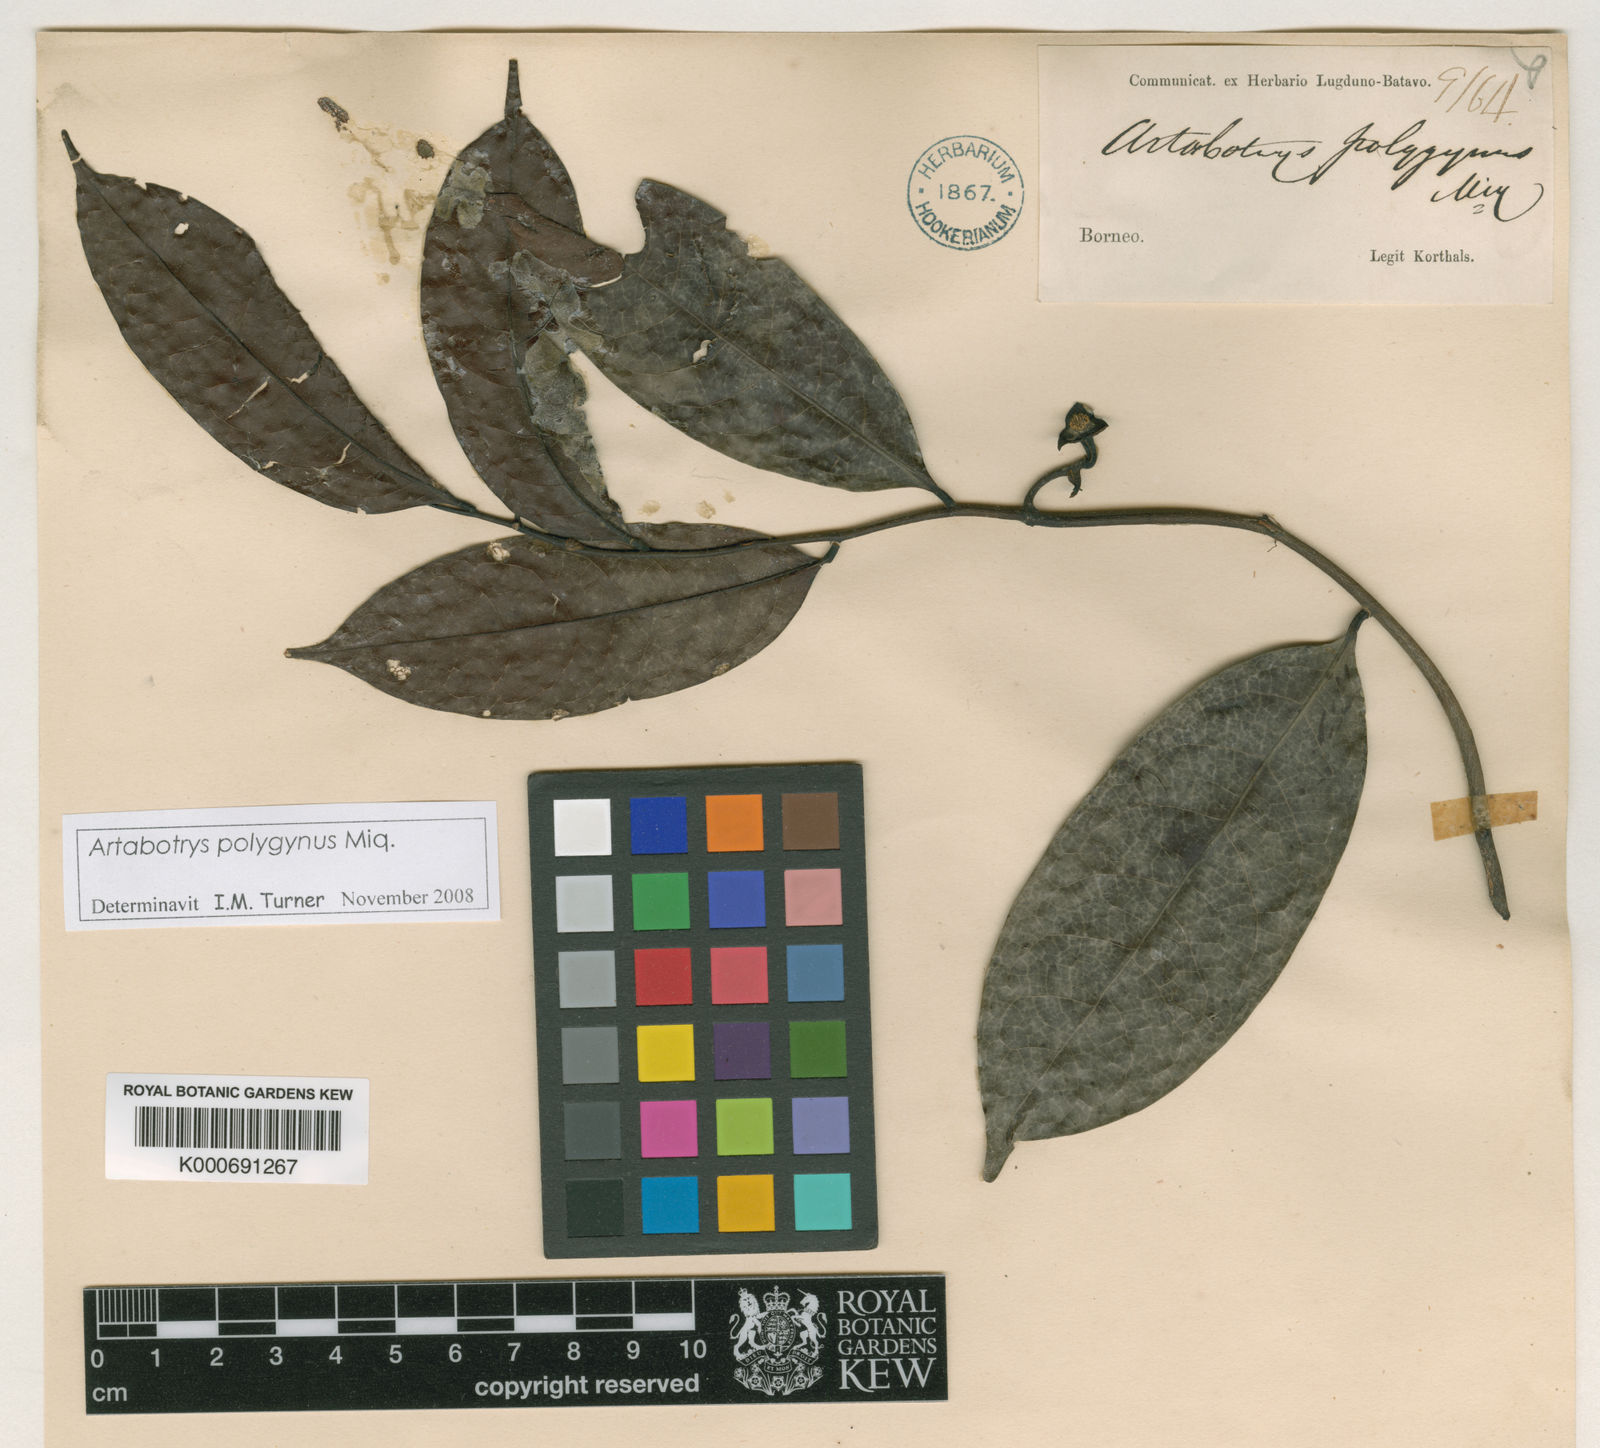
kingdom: Plantae
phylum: Tracheophyta
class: Magnoliopsida
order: Magnoliales
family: Annonaceae
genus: Artabotrys
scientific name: Artabotrys polygynus
